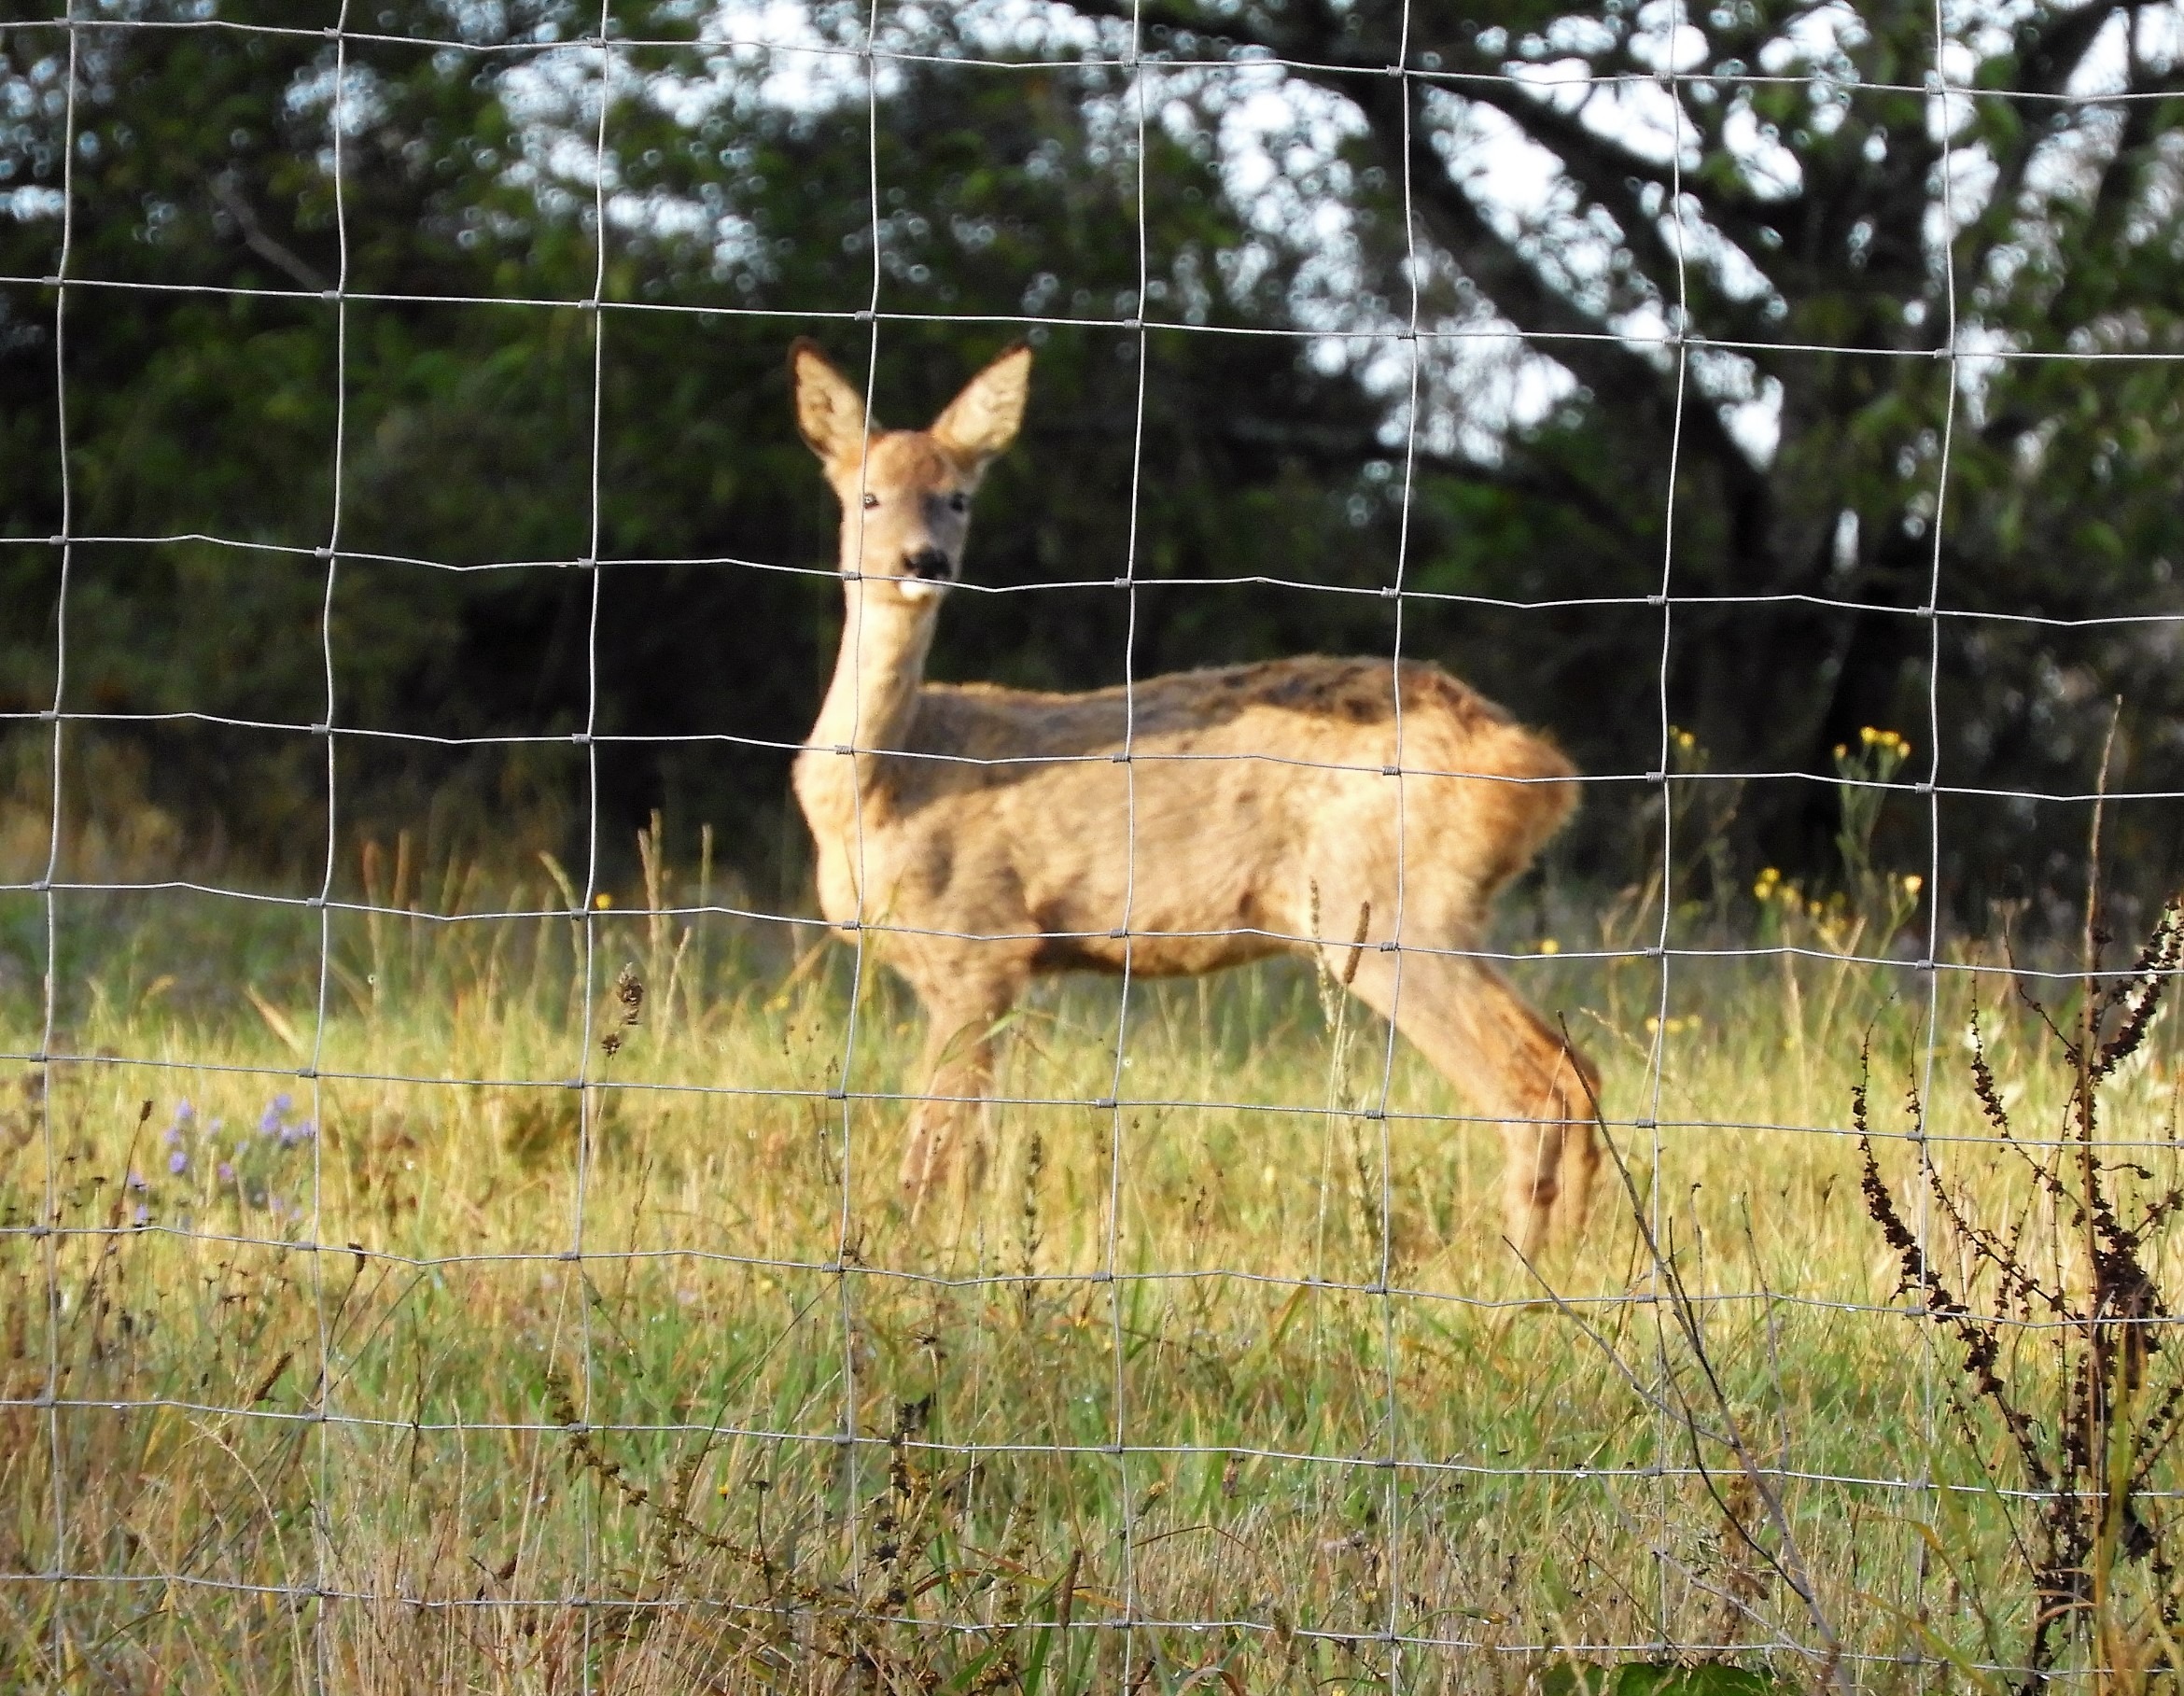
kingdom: Animalia
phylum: Chordata
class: Mammalia
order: Artiodactyla
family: Cervidae
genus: Capreolus
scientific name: Capreolus capreolus
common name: Rådyr
